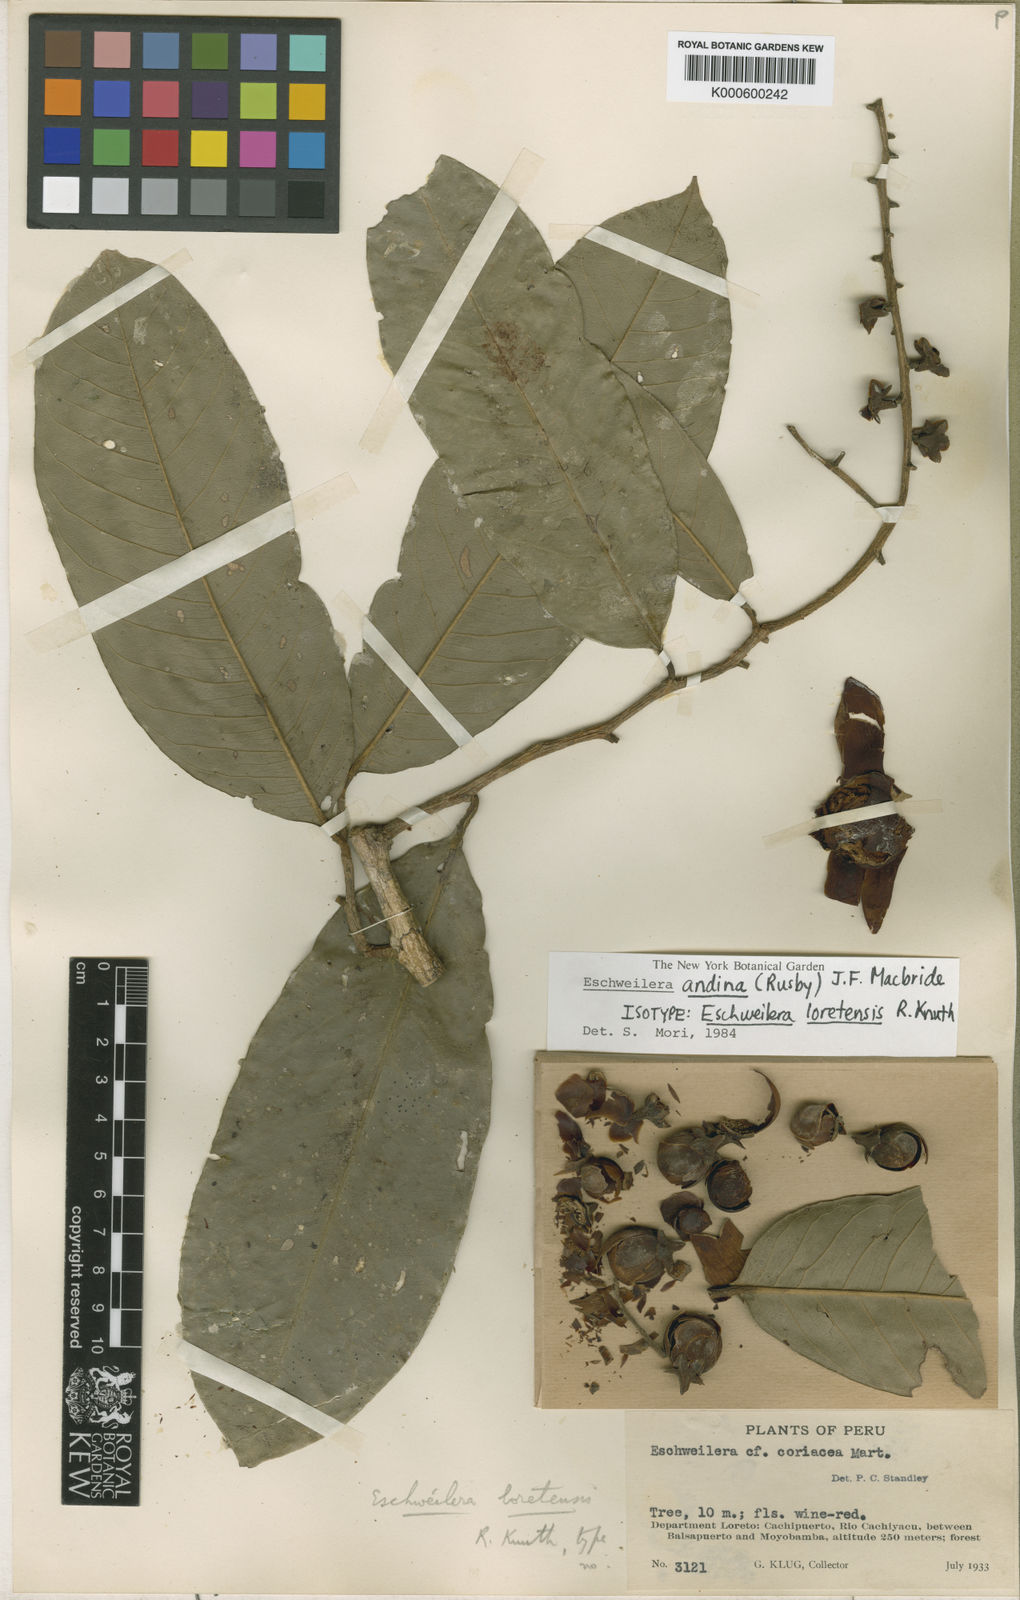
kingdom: Plantae
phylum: Tracheophyta
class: Magnoliopsida
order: Ericales
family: Lecythidaceae
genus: Eschweilera
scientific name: Eschweilera andina
